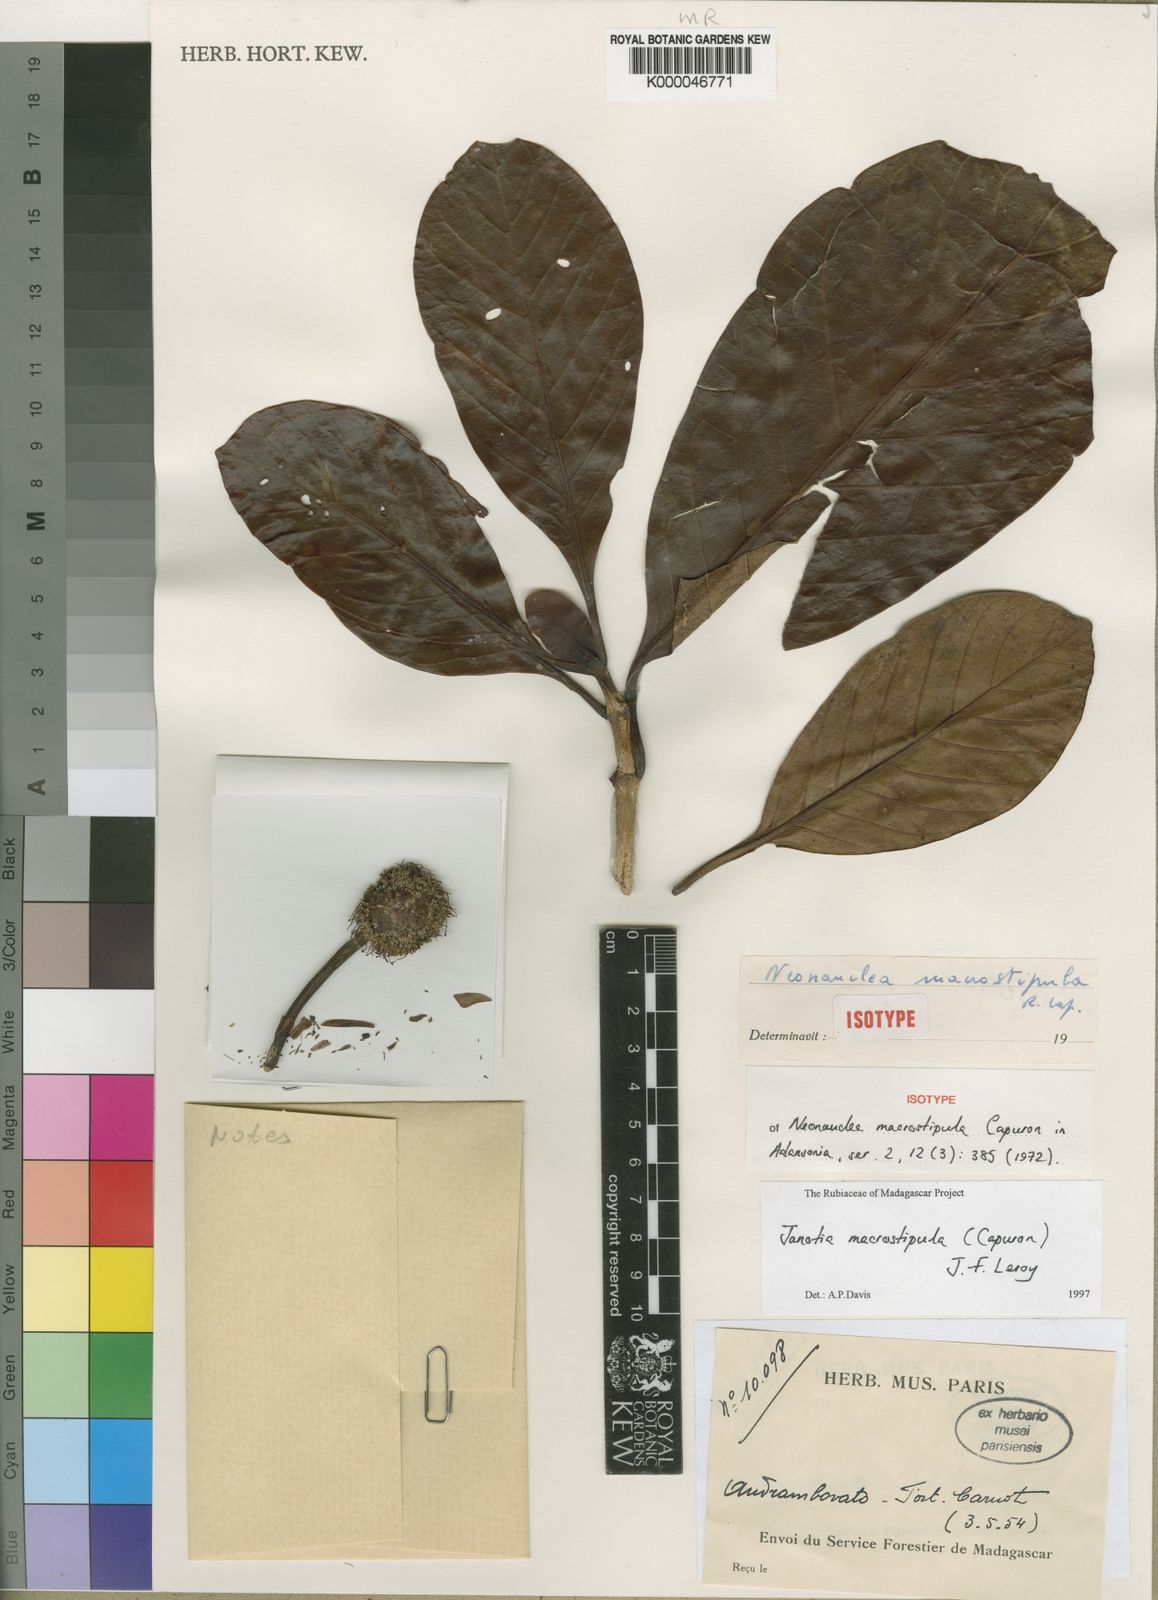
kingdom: Plantae
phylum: Tracheophyta
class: Magnoliopsida
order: Gentianales
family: Rubiaceae
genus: Janotia
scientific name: Janotia macrostipula
